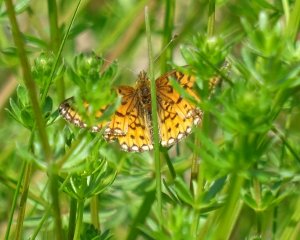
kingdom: Animalia
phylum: Arthropoda
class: Insecta
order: Lepidoptera
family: Nymphalidae
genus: Boloria
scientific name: Boloria selene
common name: Silver-bordered Fritillary
